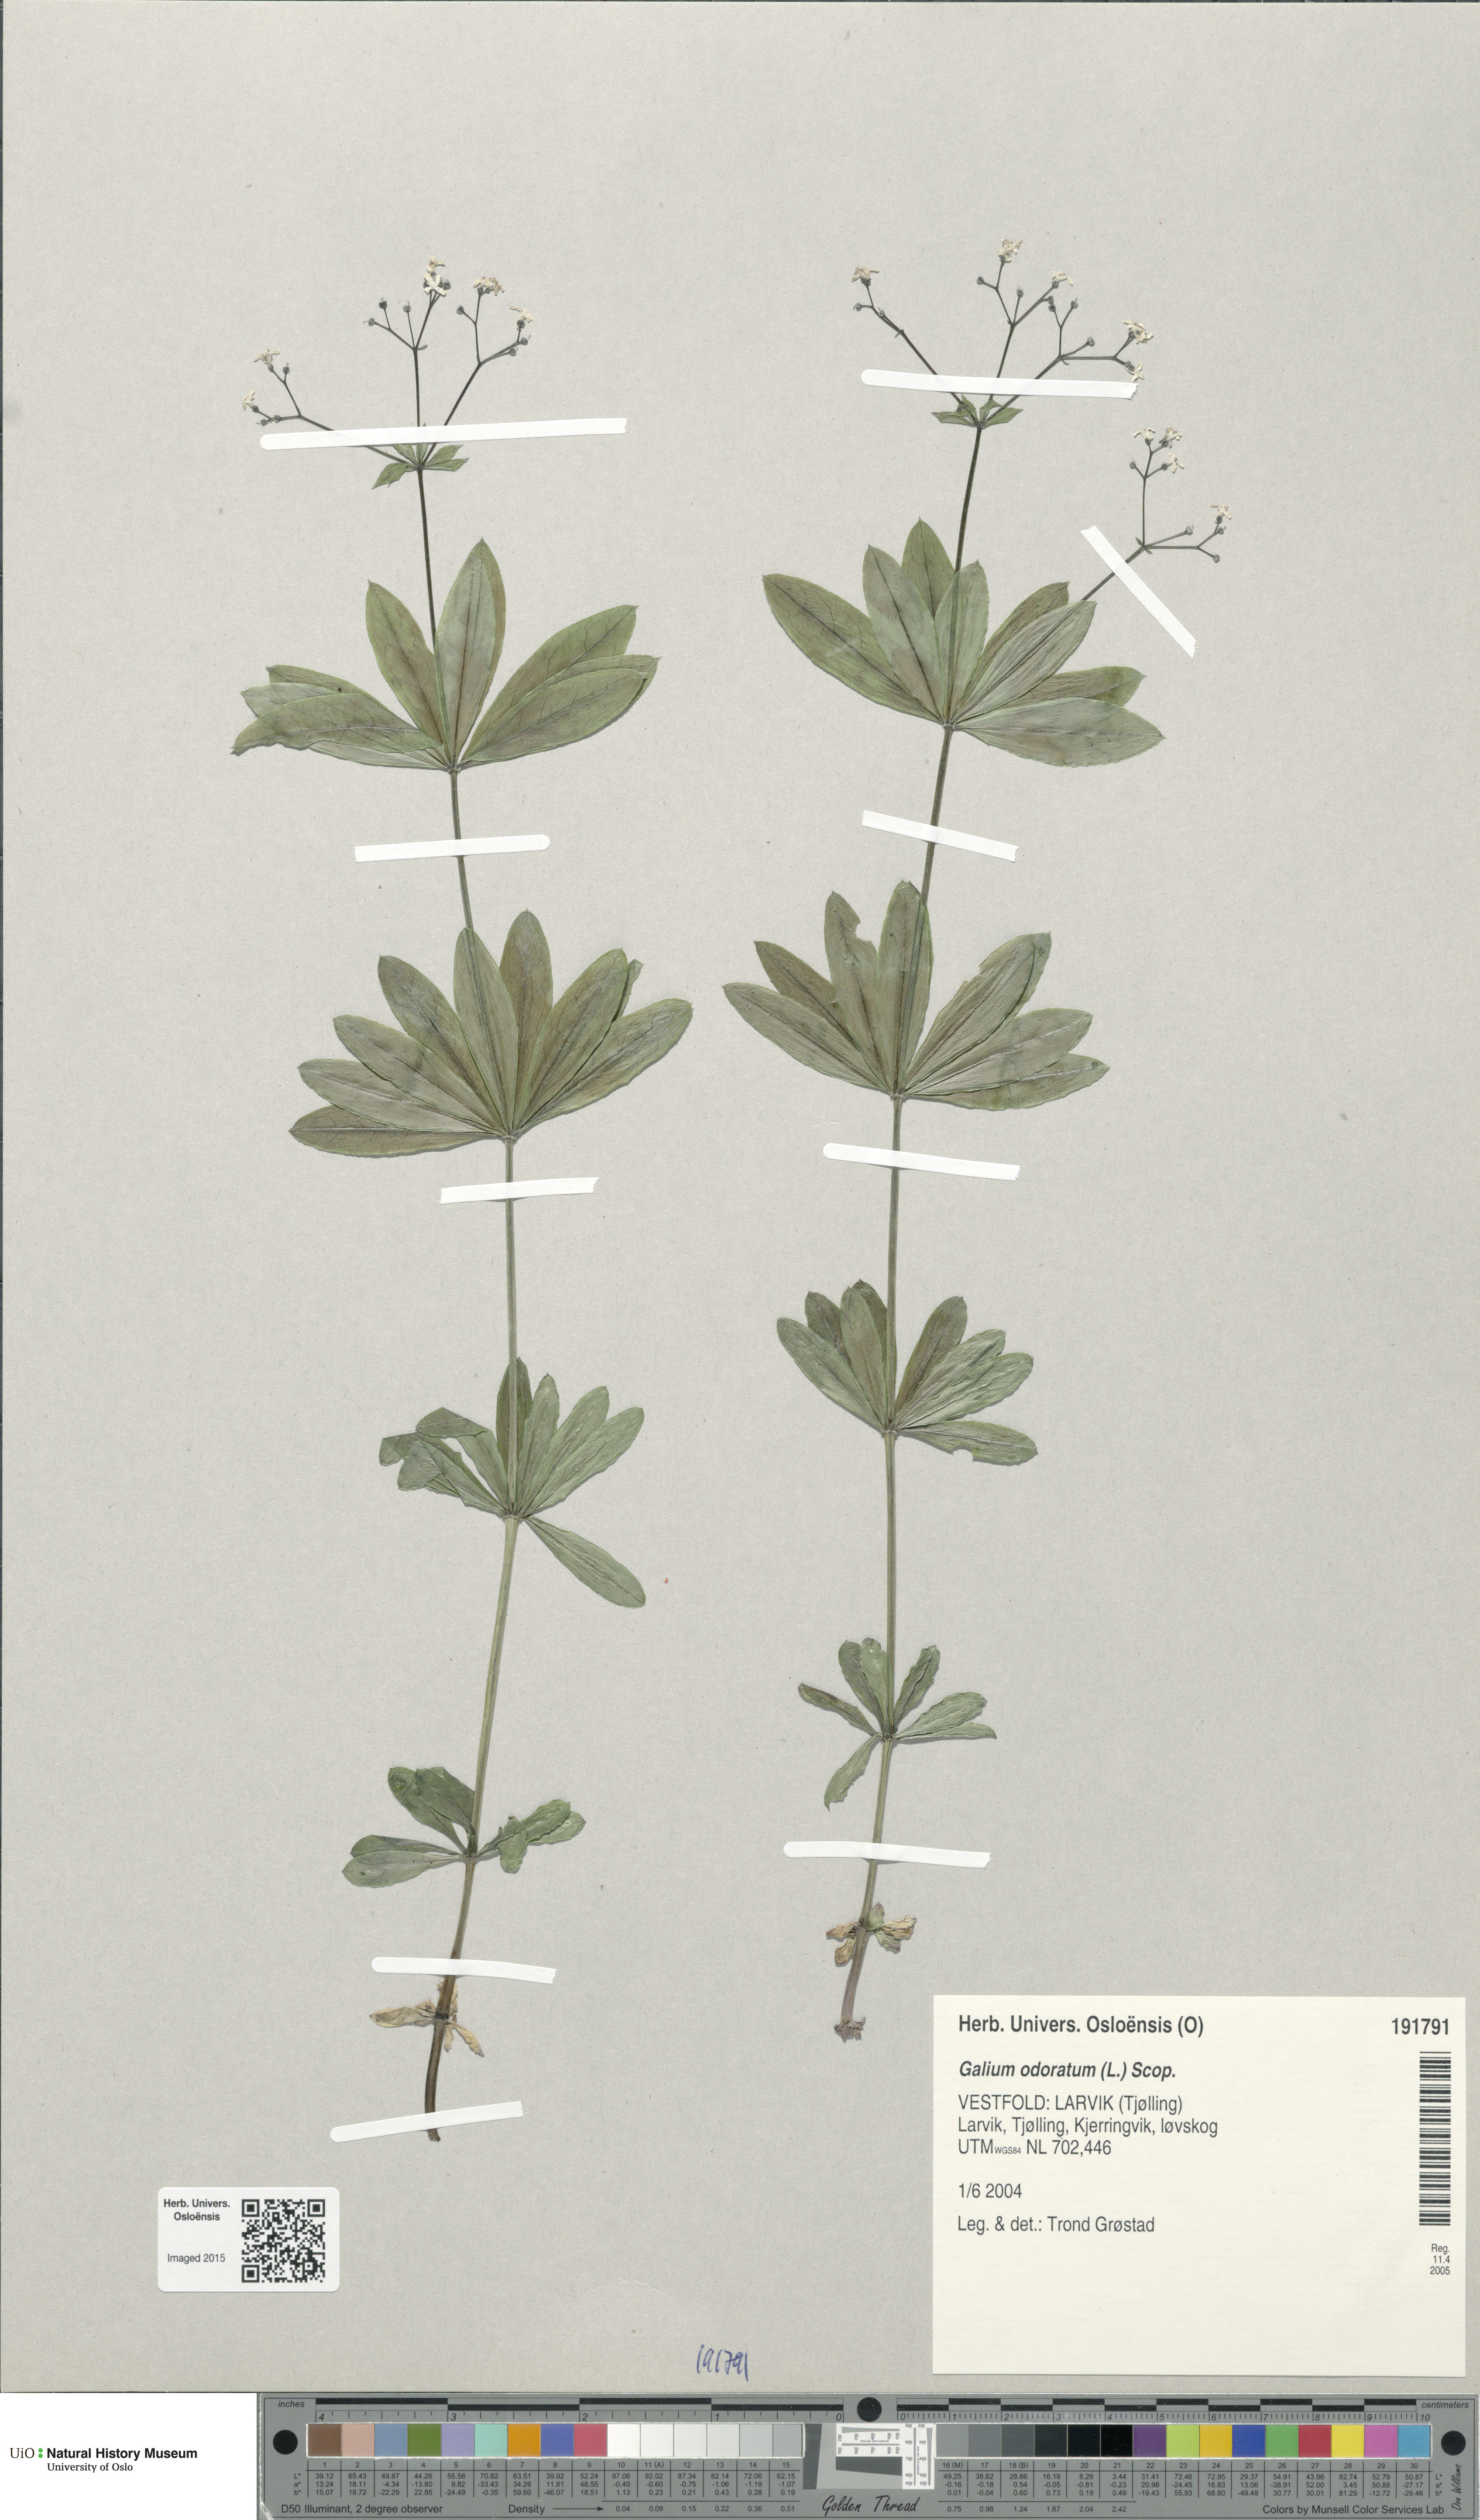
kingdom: Plantae
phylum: Tracheophyta
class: Magnoliopsida
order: Gentianales
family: Rubiaceae
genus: Galium
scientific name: Galium odoratum
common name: Sweet woodruff
